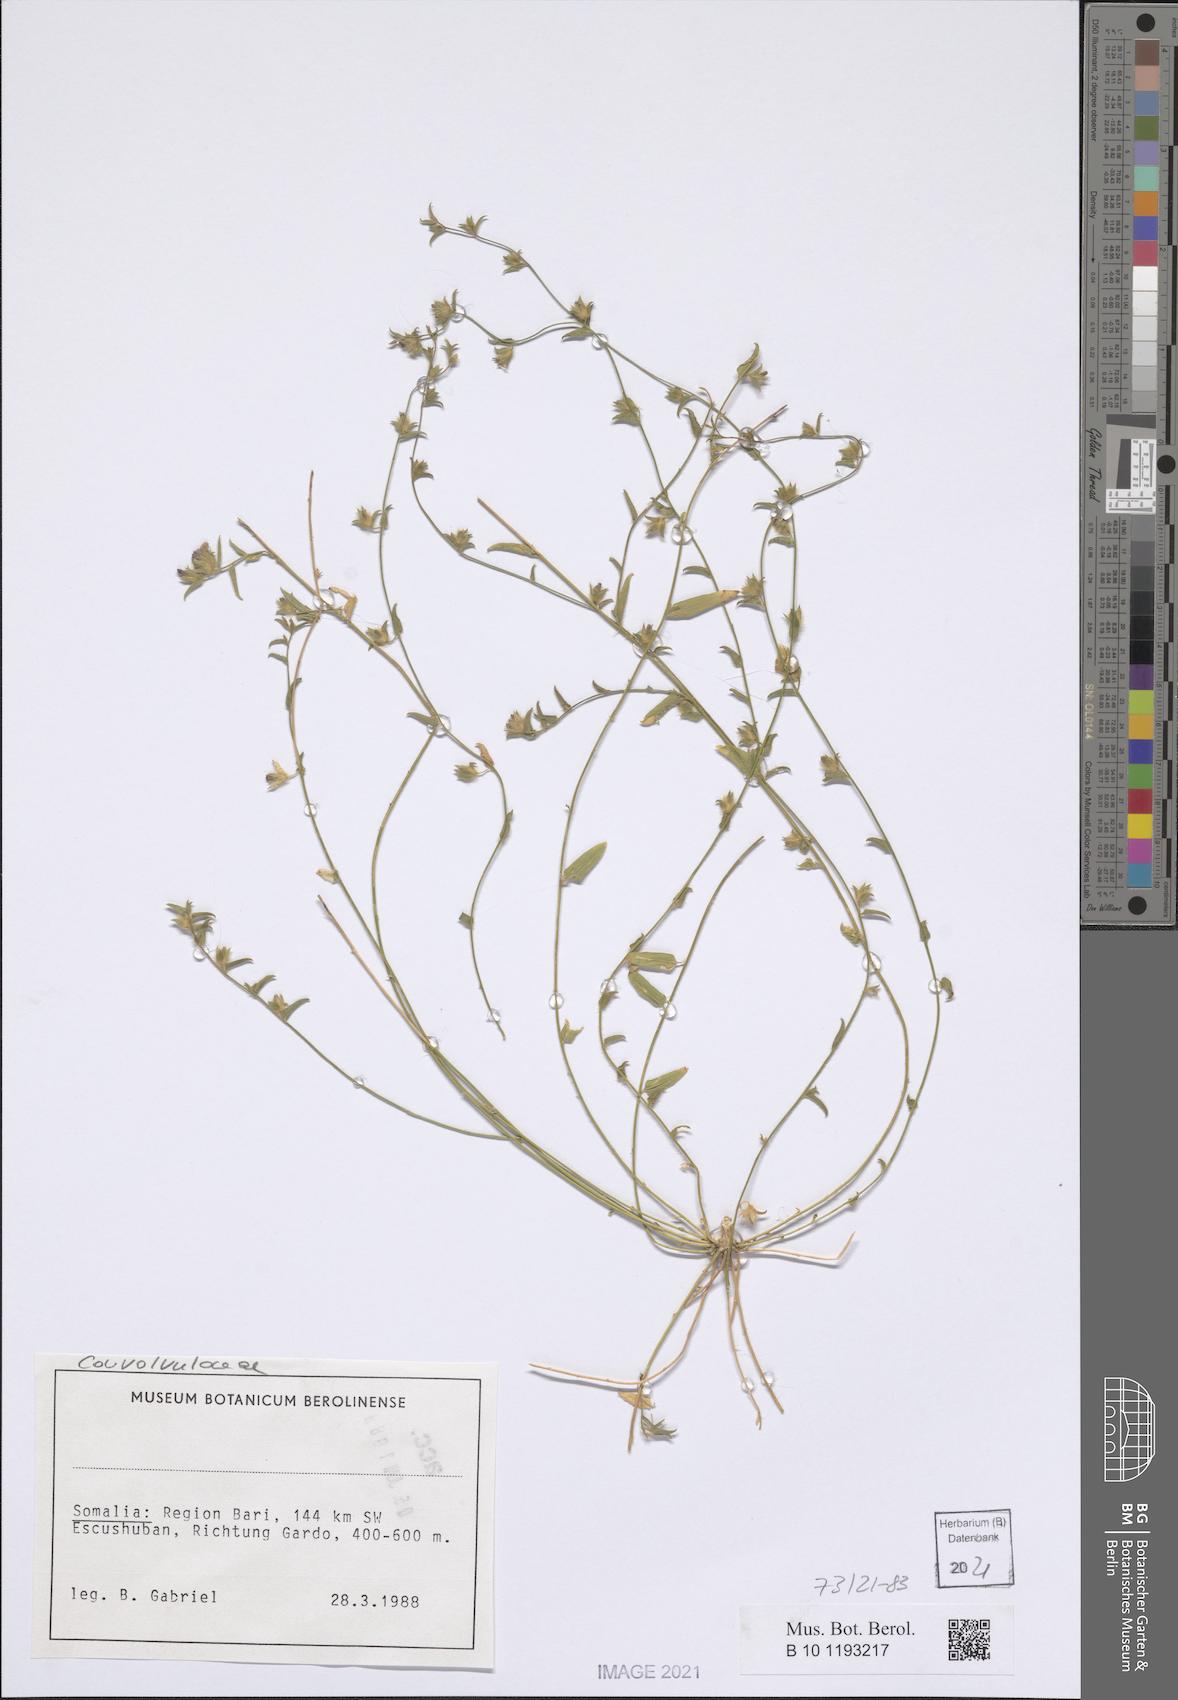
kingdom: Plantae
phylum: Tracheophyta
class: Magnoliopsida
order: Solanales
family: Convolvulaceae
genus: Convolvulus
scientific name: Convolvulus rhyniospermus
